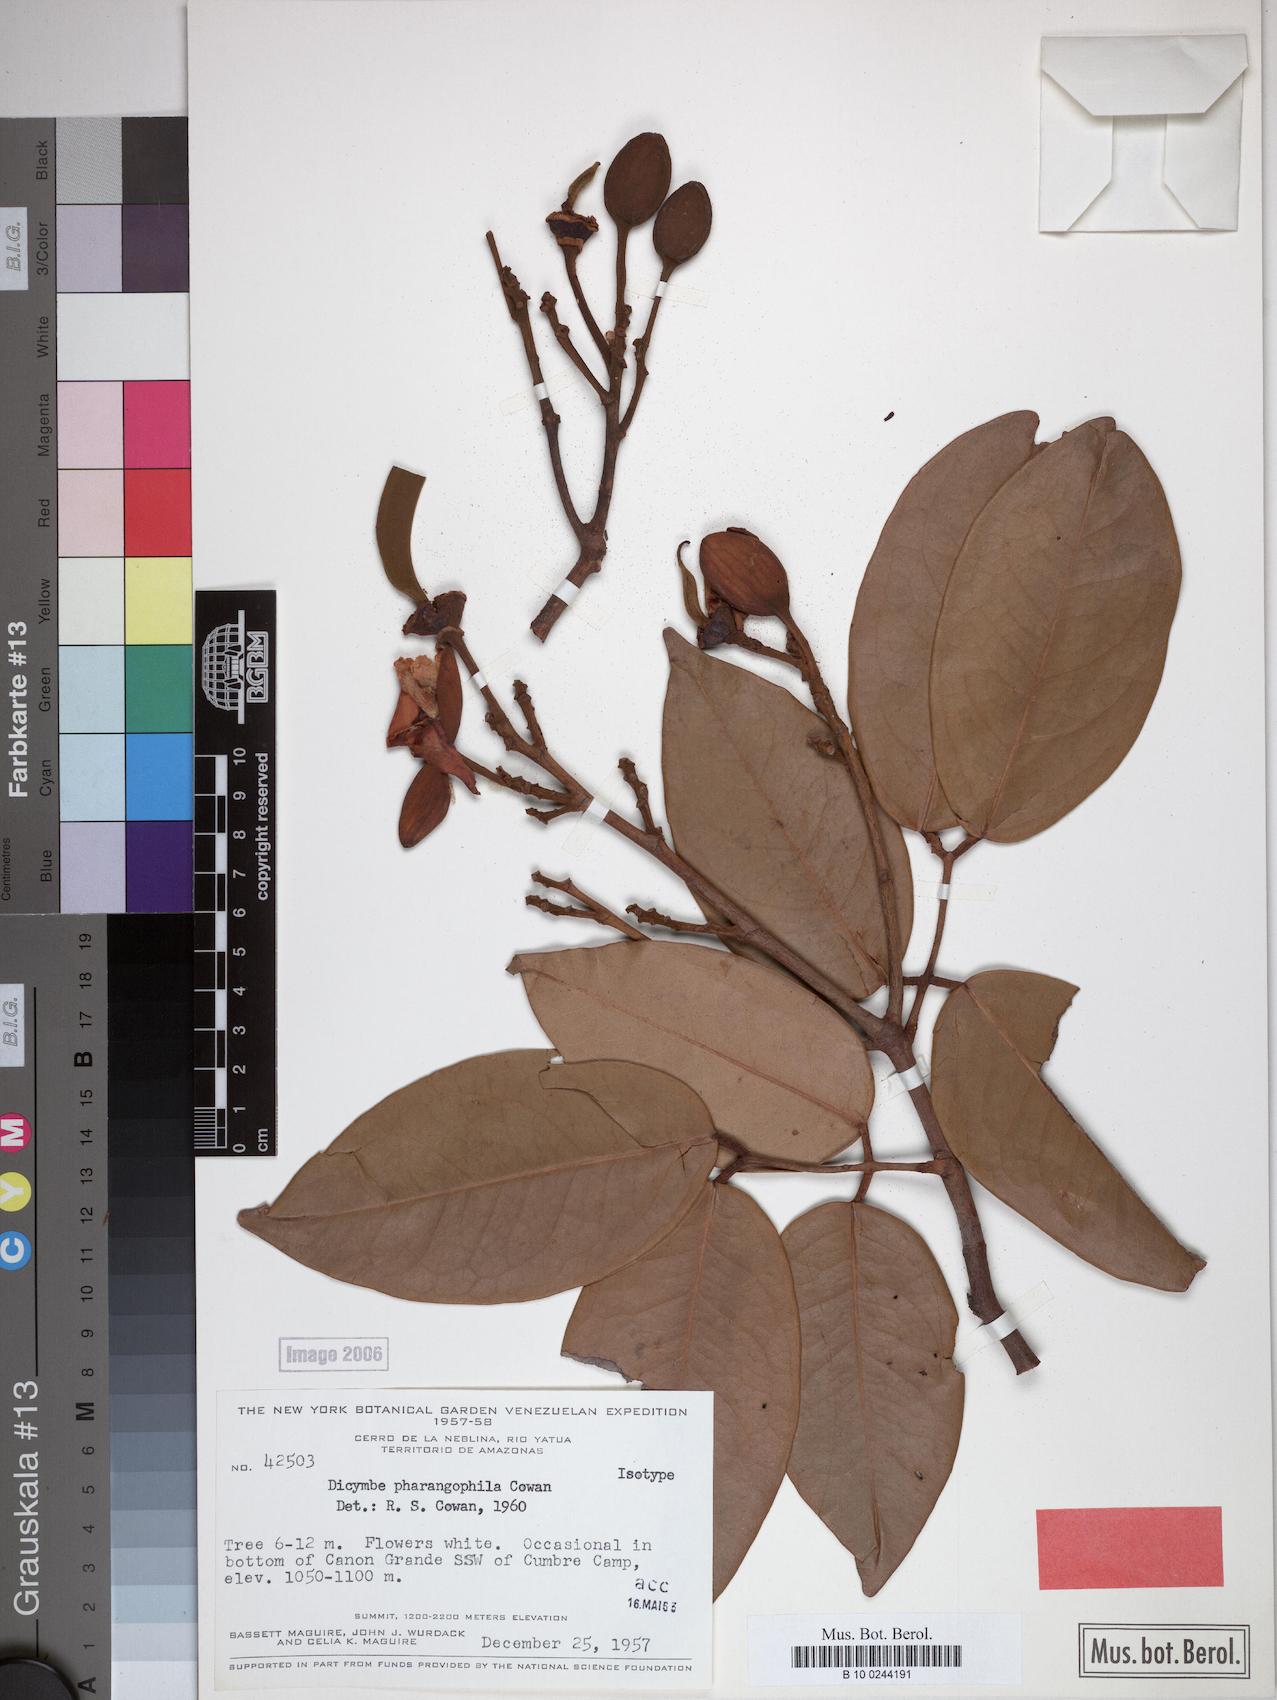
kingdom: Plantae
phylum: Tracheophyta
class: Magnoliopsida
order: Fabales
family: Fabaceae
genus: Dicymbe
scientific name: Dicymbe pharangophila
